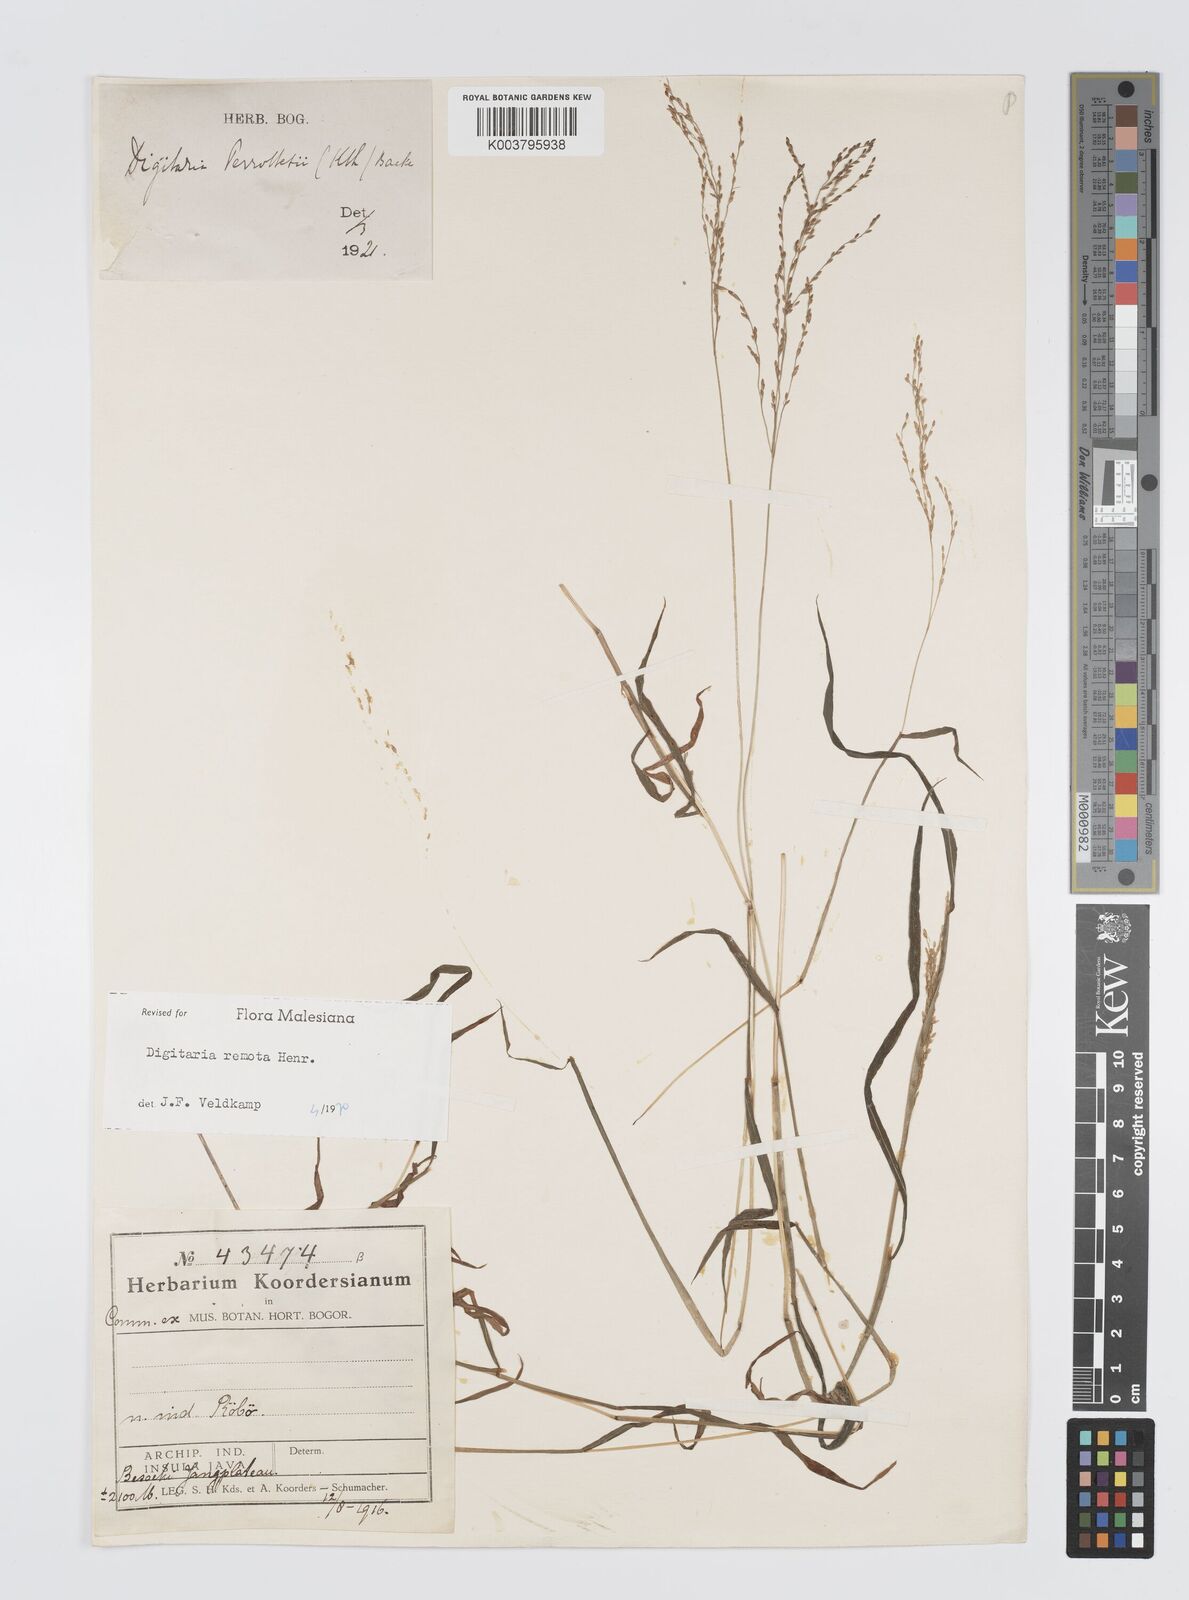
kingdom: Plantae
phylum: Tracheophyta
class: Liliopsida
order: Poales
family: Poaceae
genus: Digitaria
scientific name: Digitaria wallichiana
